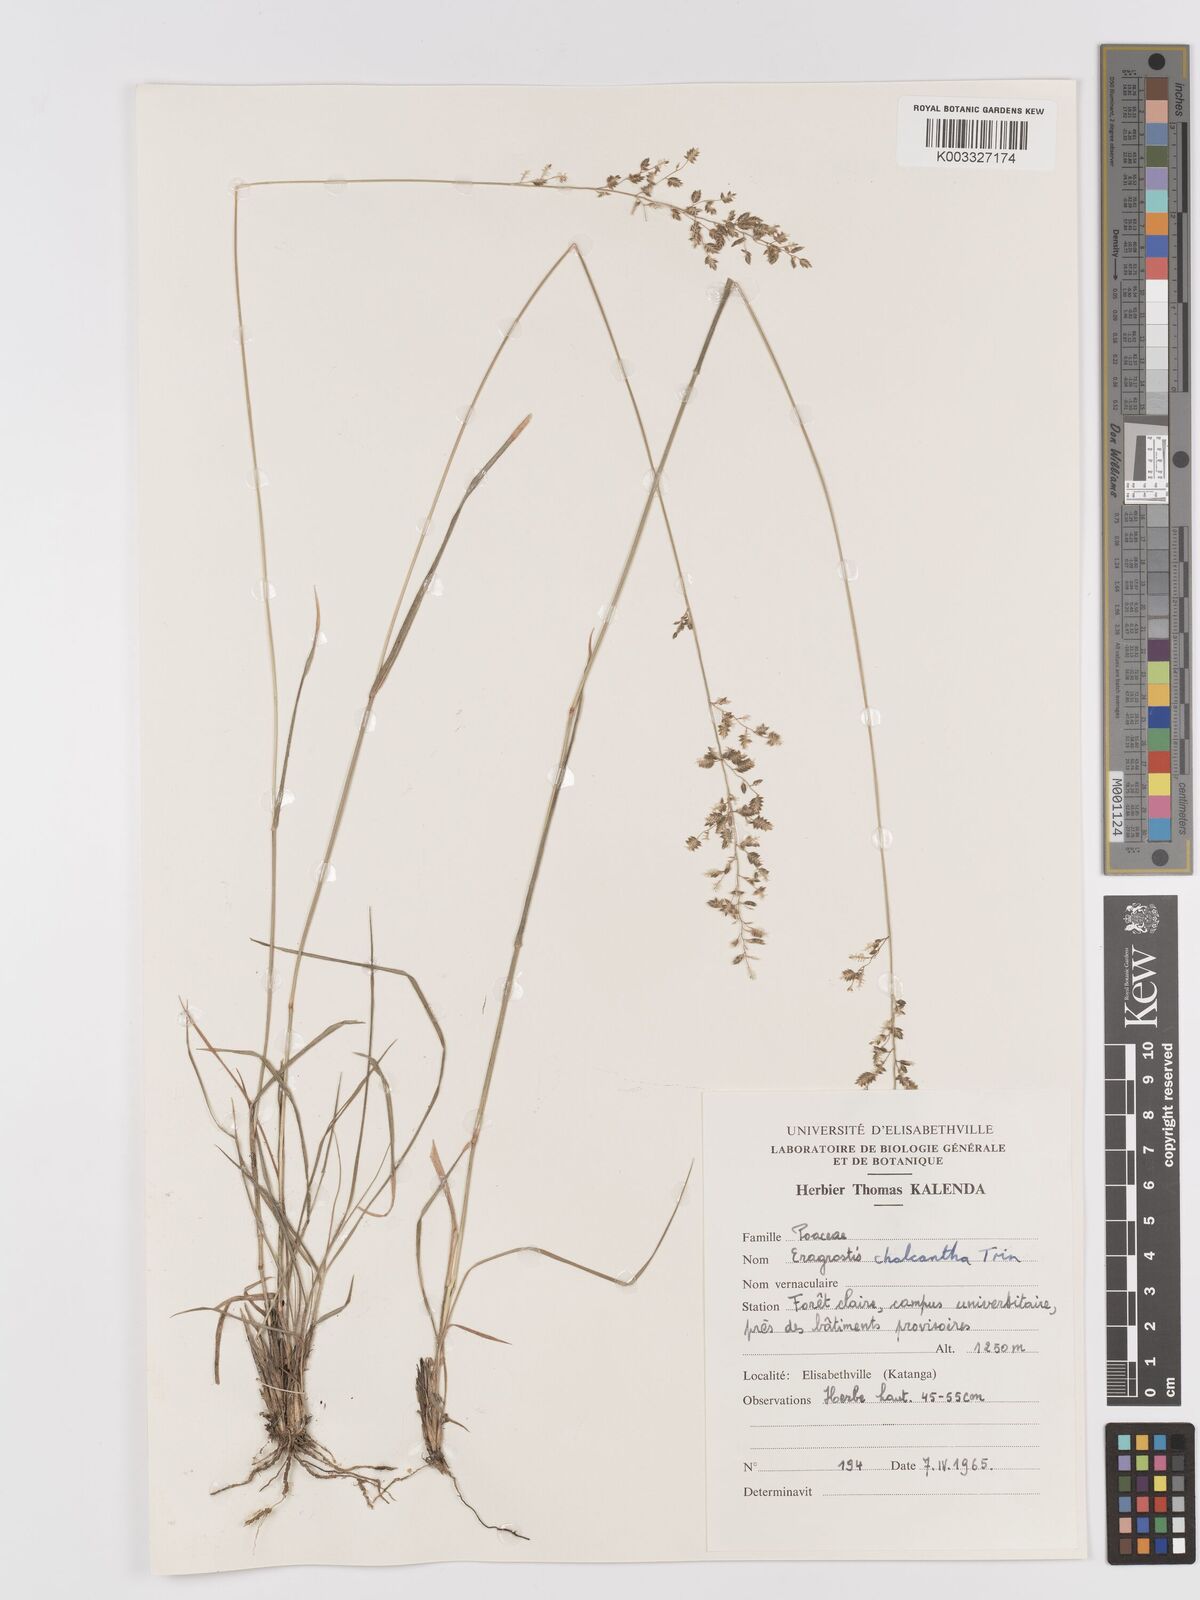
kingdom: Plantae
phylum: Tracheophyta
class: Liliopsida
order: Poales
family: Poaceae
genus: Eragrostis
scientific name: Eragrostis racemosa
